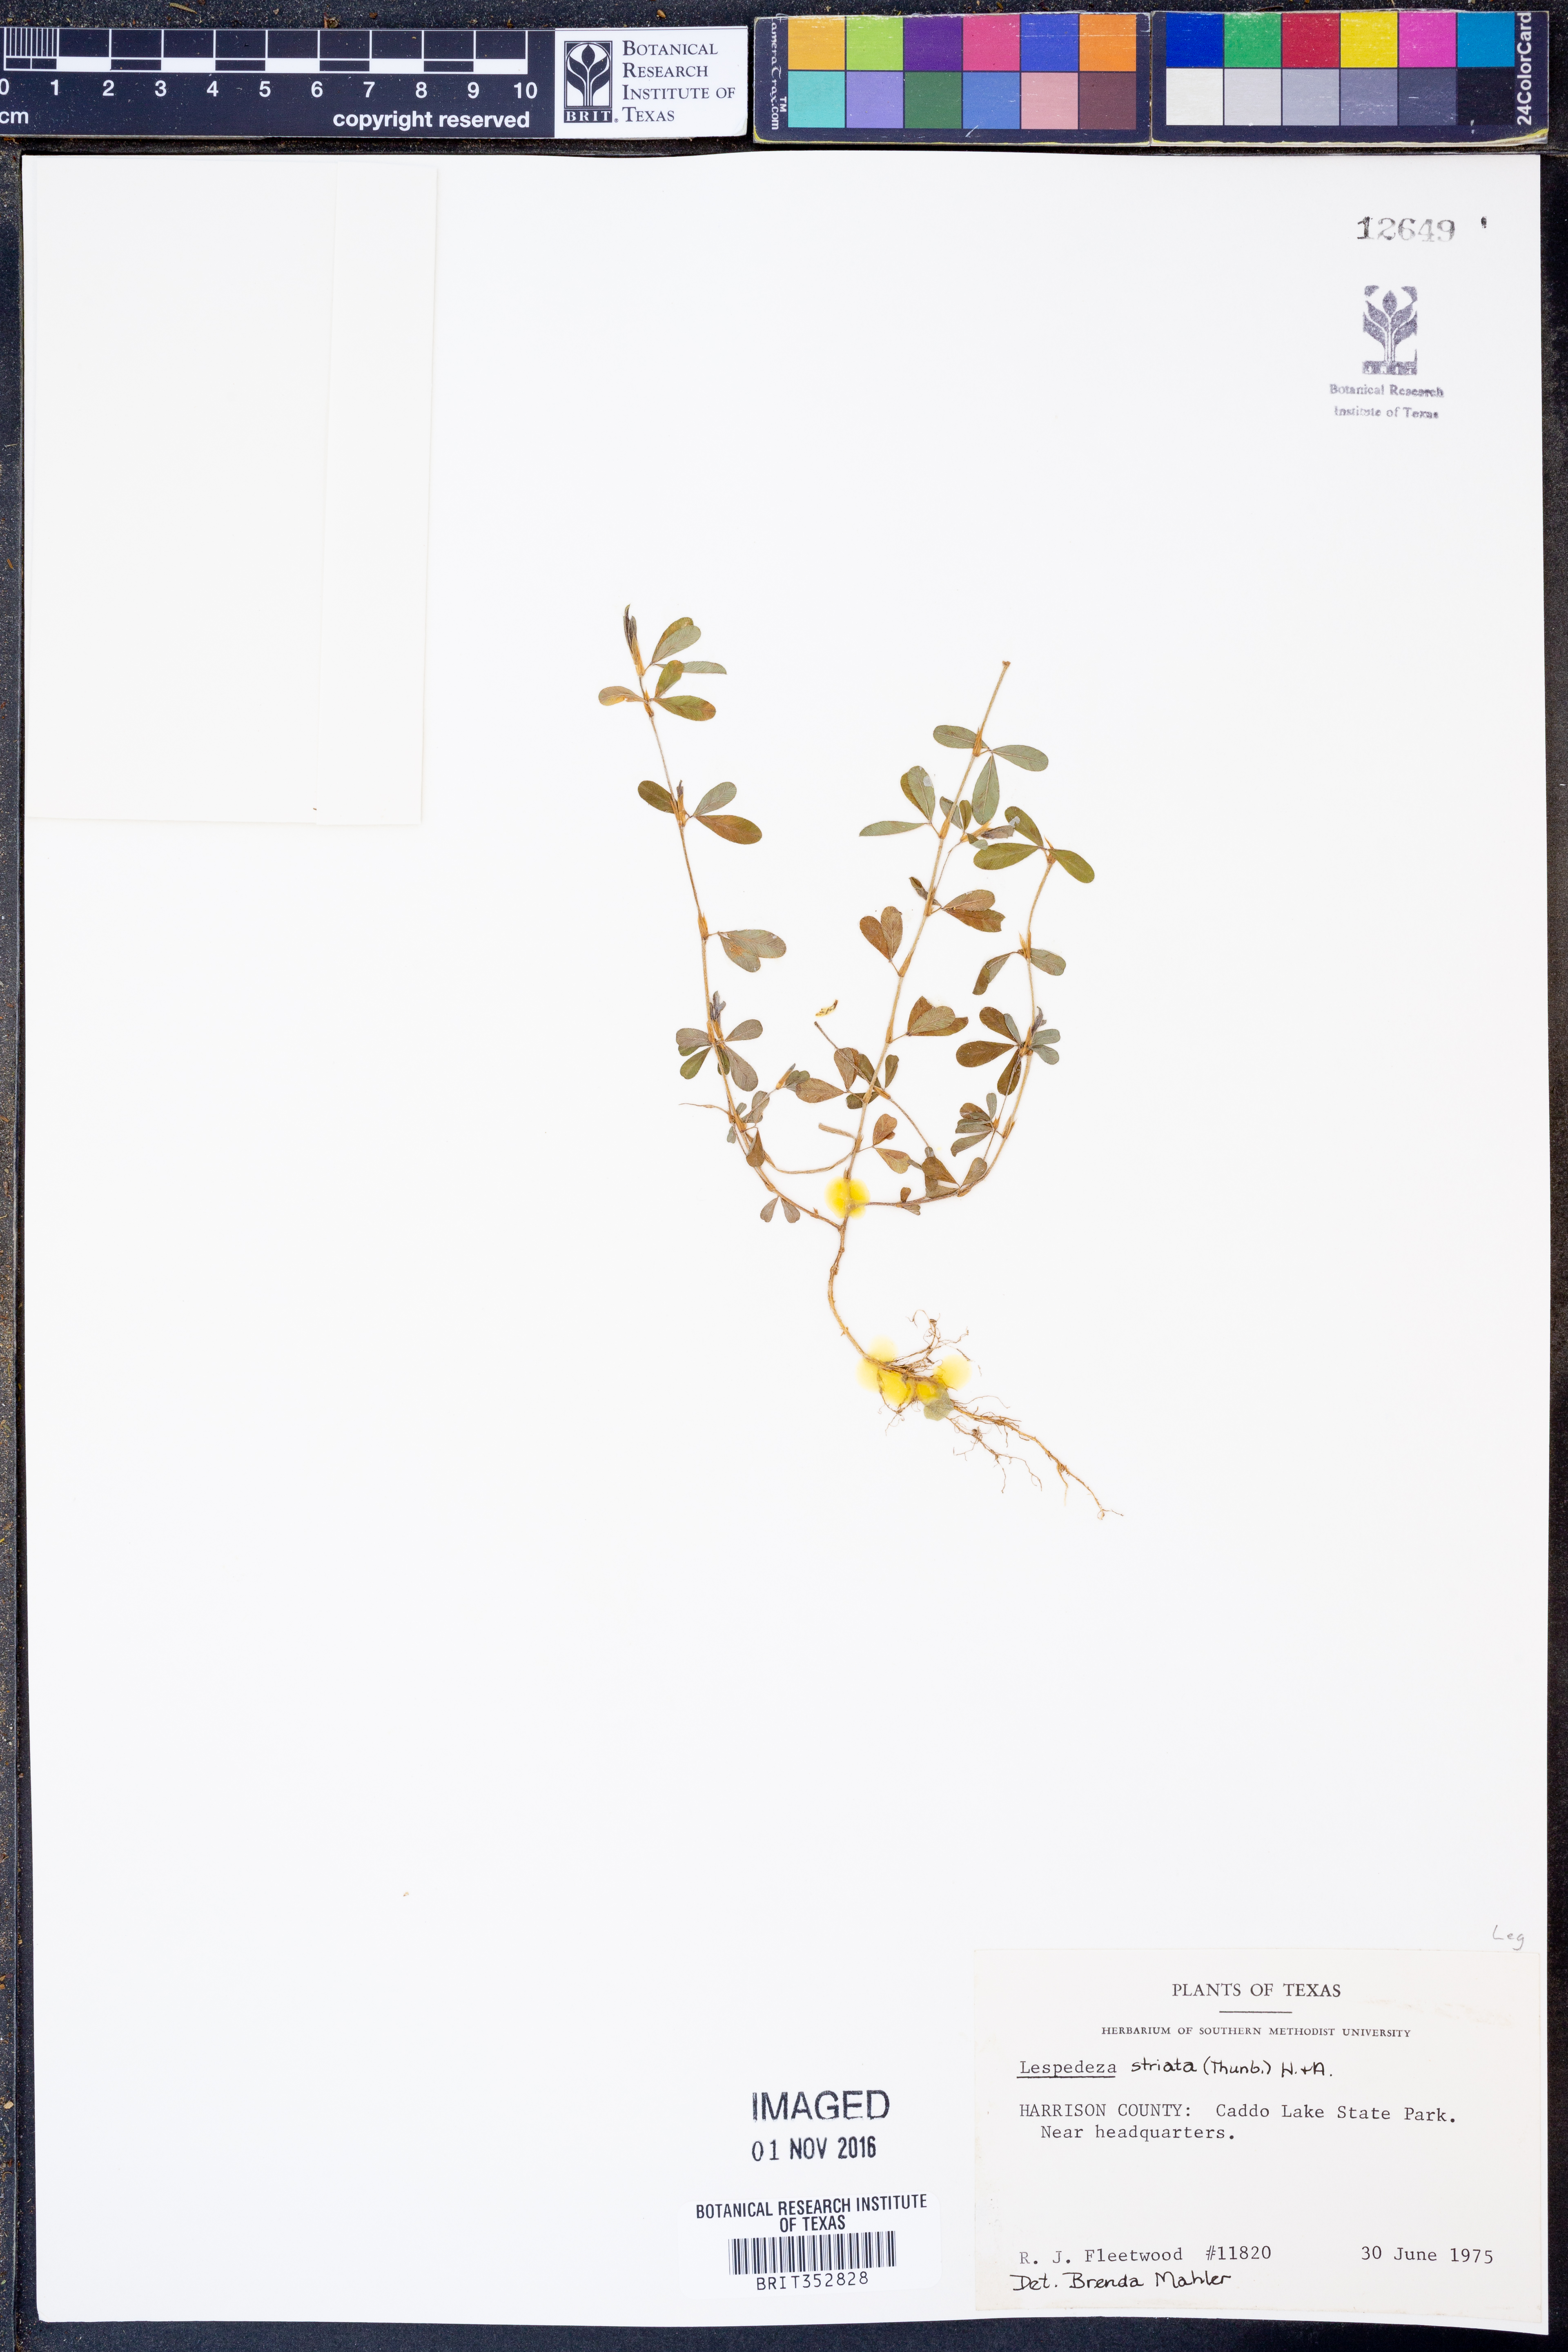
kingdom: Plantae
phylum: Tracheophyta
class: Magnoliopsida
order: Fabales
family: Fabaceae
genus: Kummerowia
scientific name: Kummerowia striata
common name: Japanese clover
